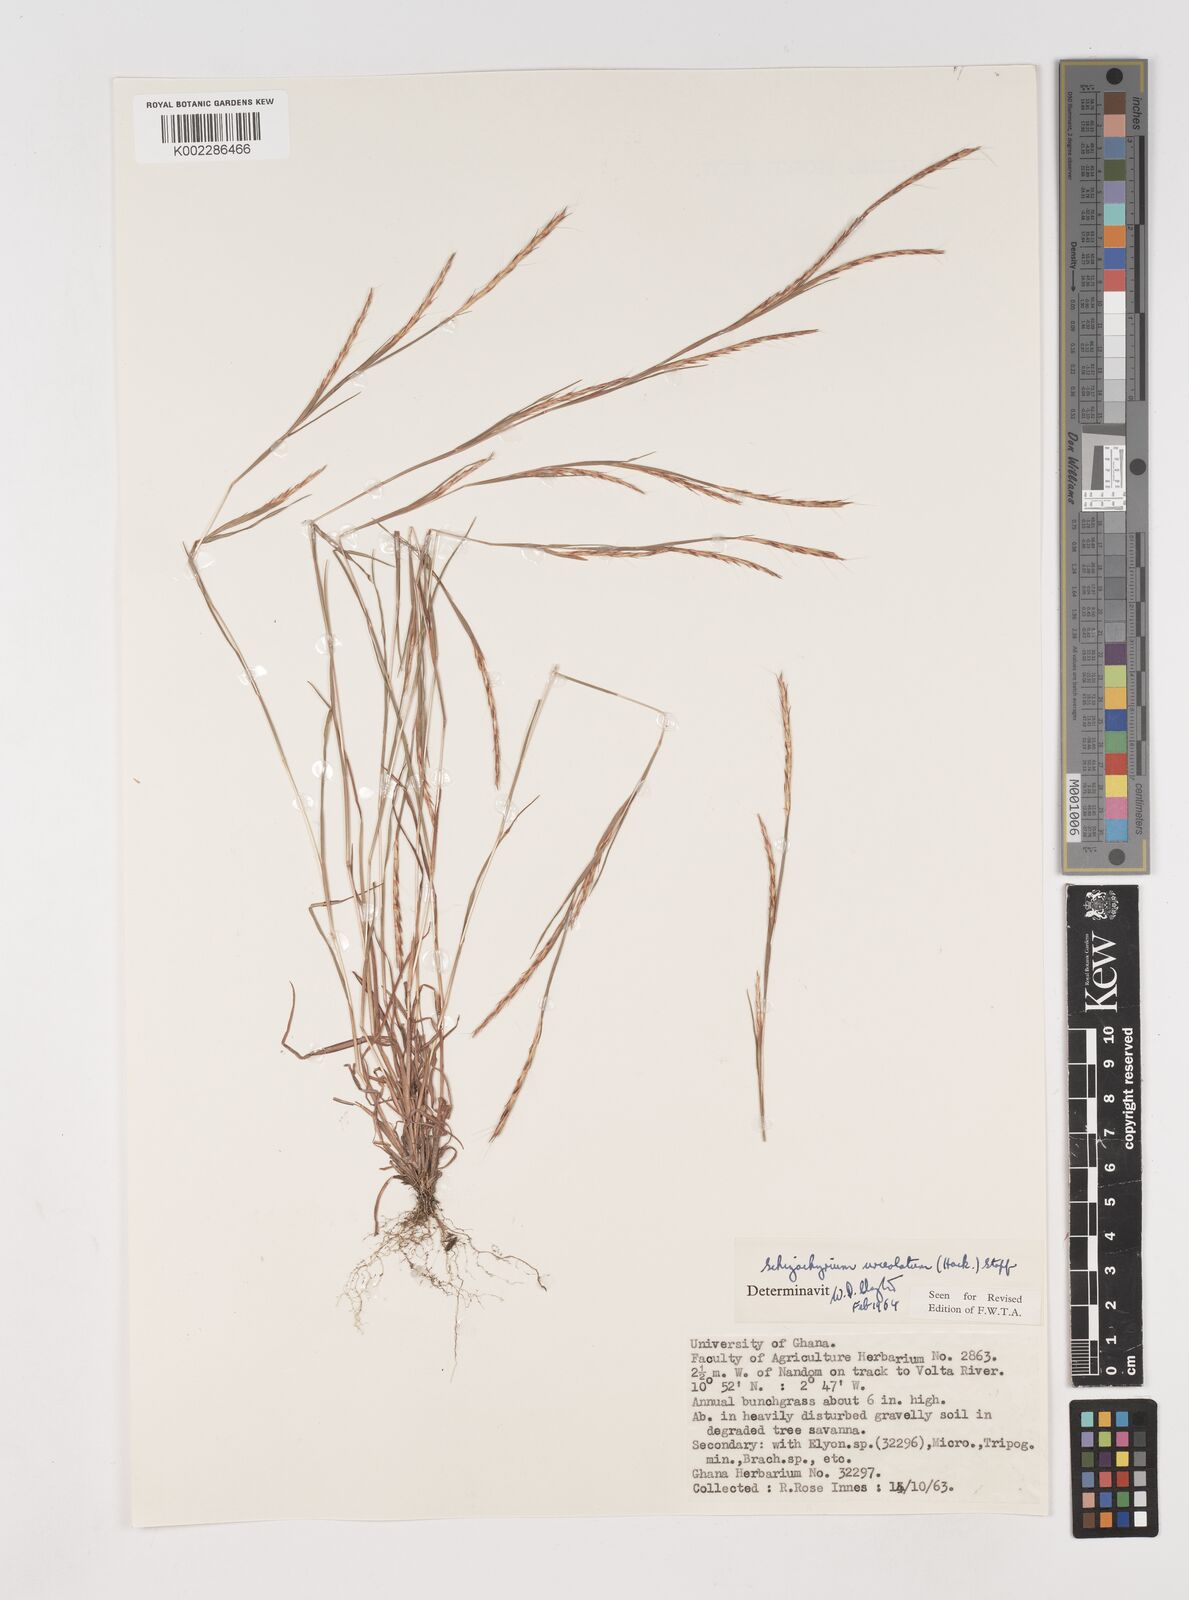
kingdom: Plantae
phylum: Tracheophyta
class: Liliopsida
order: Poales
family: Poaceae
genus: Schizachyrium
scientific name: Schizachyrium urceolatum
